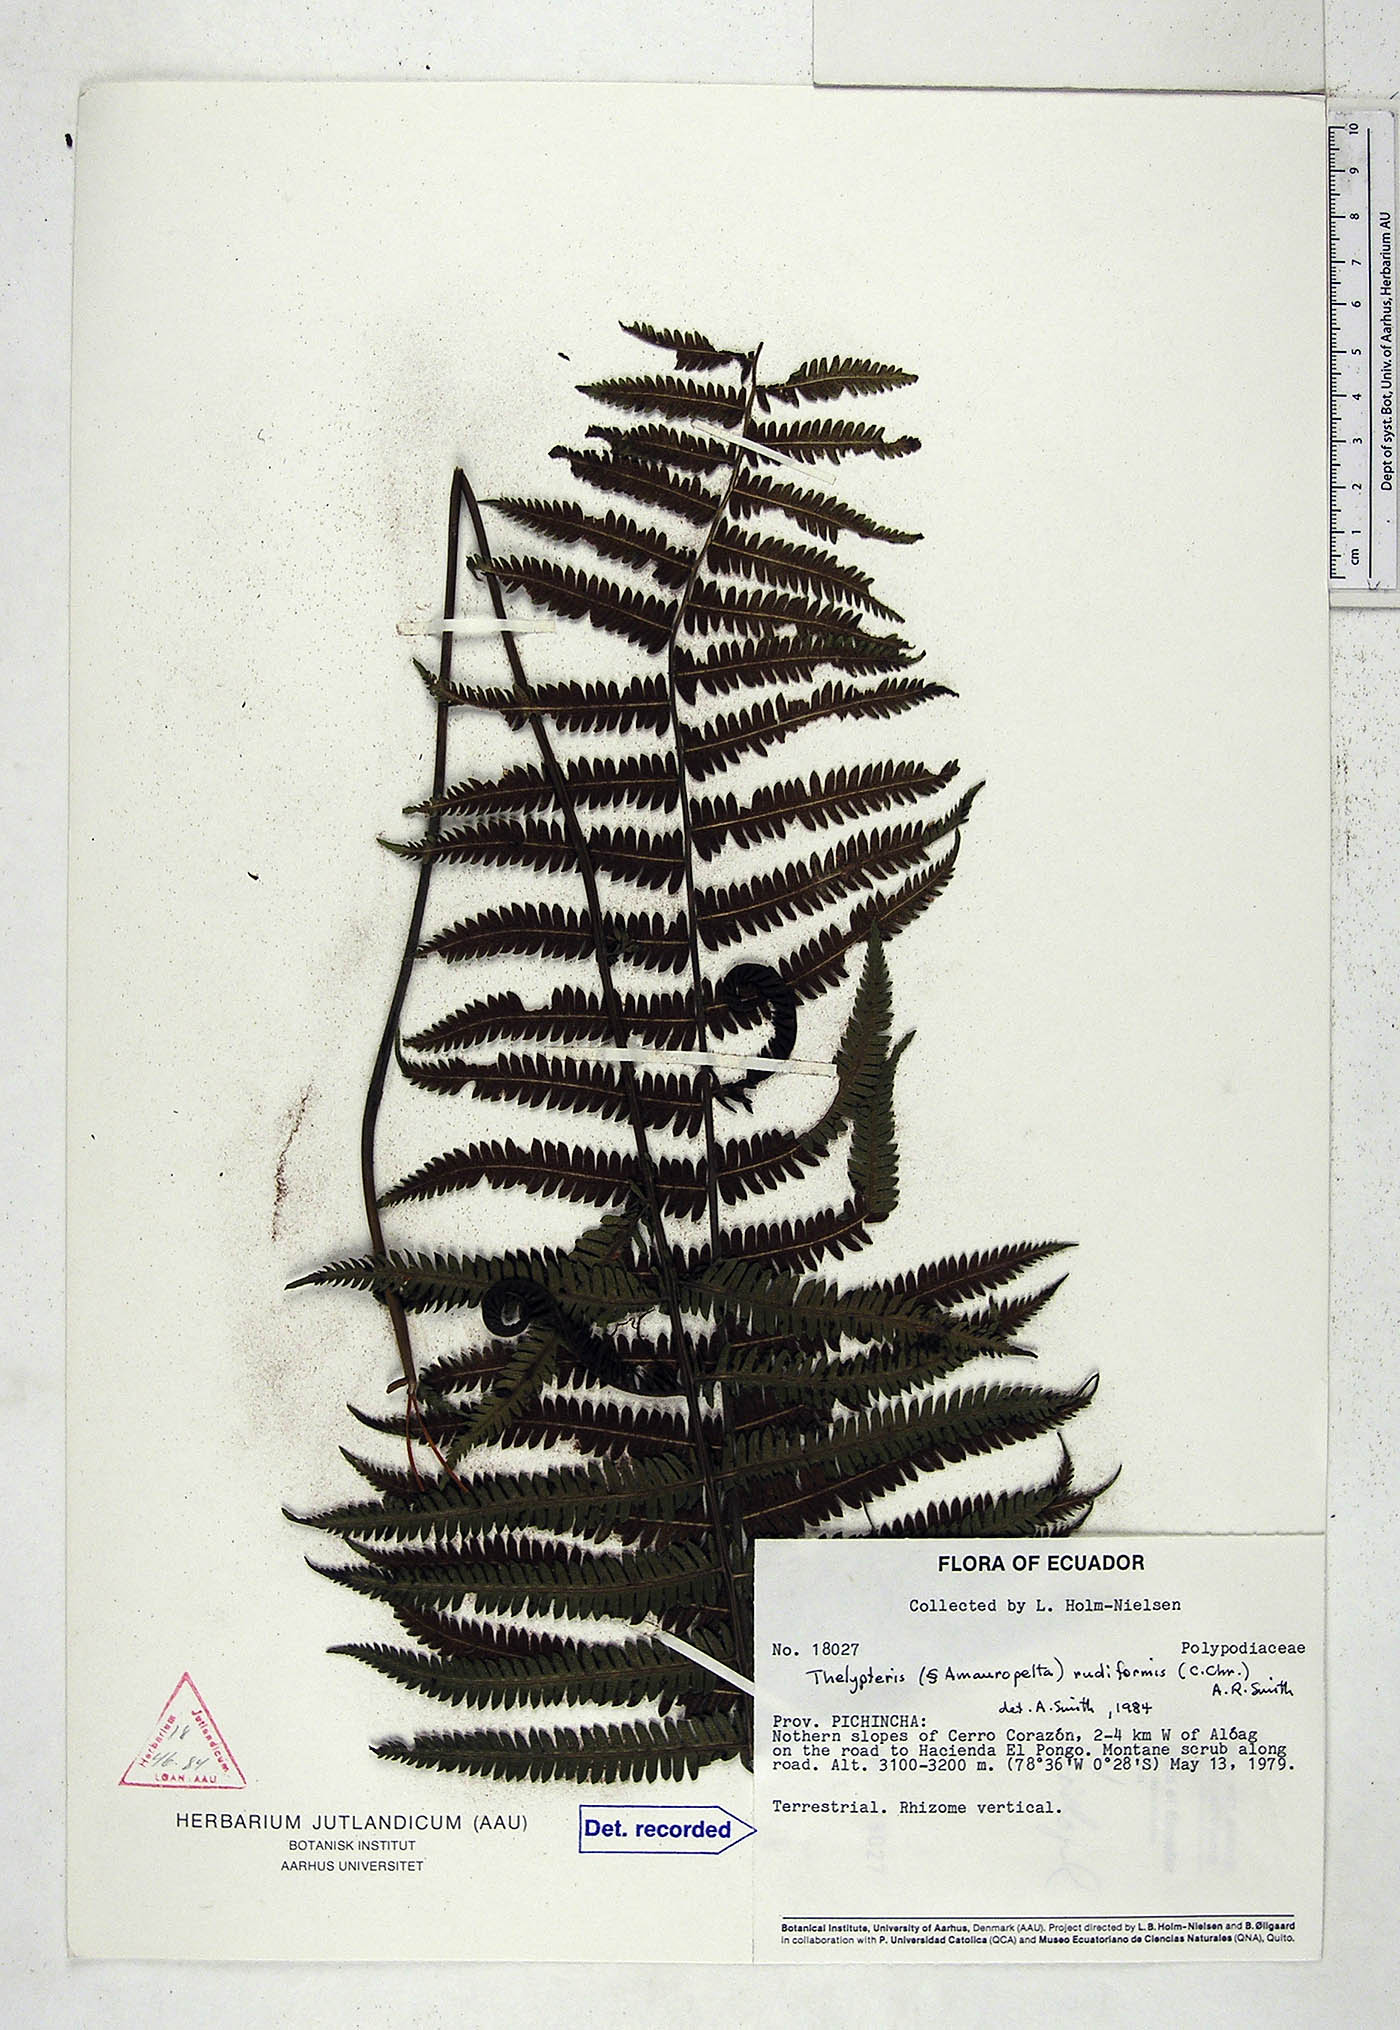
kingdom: Plantae
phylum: Tracheophyta
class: Polypodiopsida
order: Polypodiales
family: Thelypteridaceae
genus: Amauropelta
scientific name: Amauropelta rudiformis
